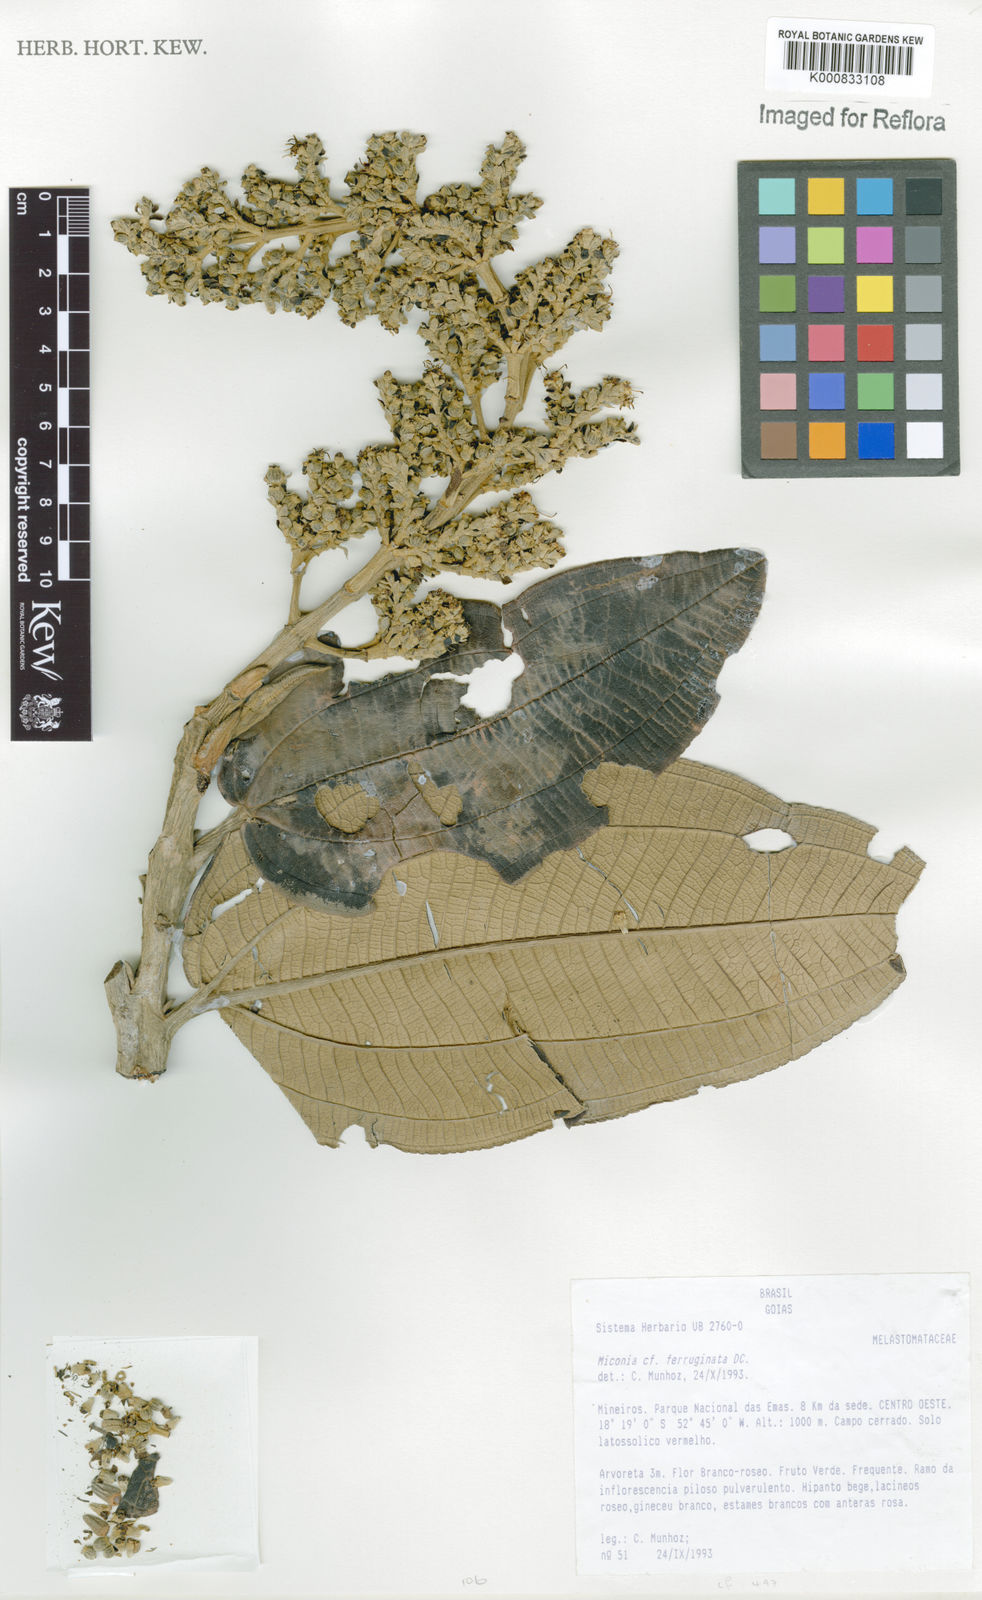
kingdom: Plantae
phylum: Tracheophyta
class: Magnoliopsida
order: Myrtales
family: Melastomataceae
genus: Miconia
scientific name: Miconia ferruginata
